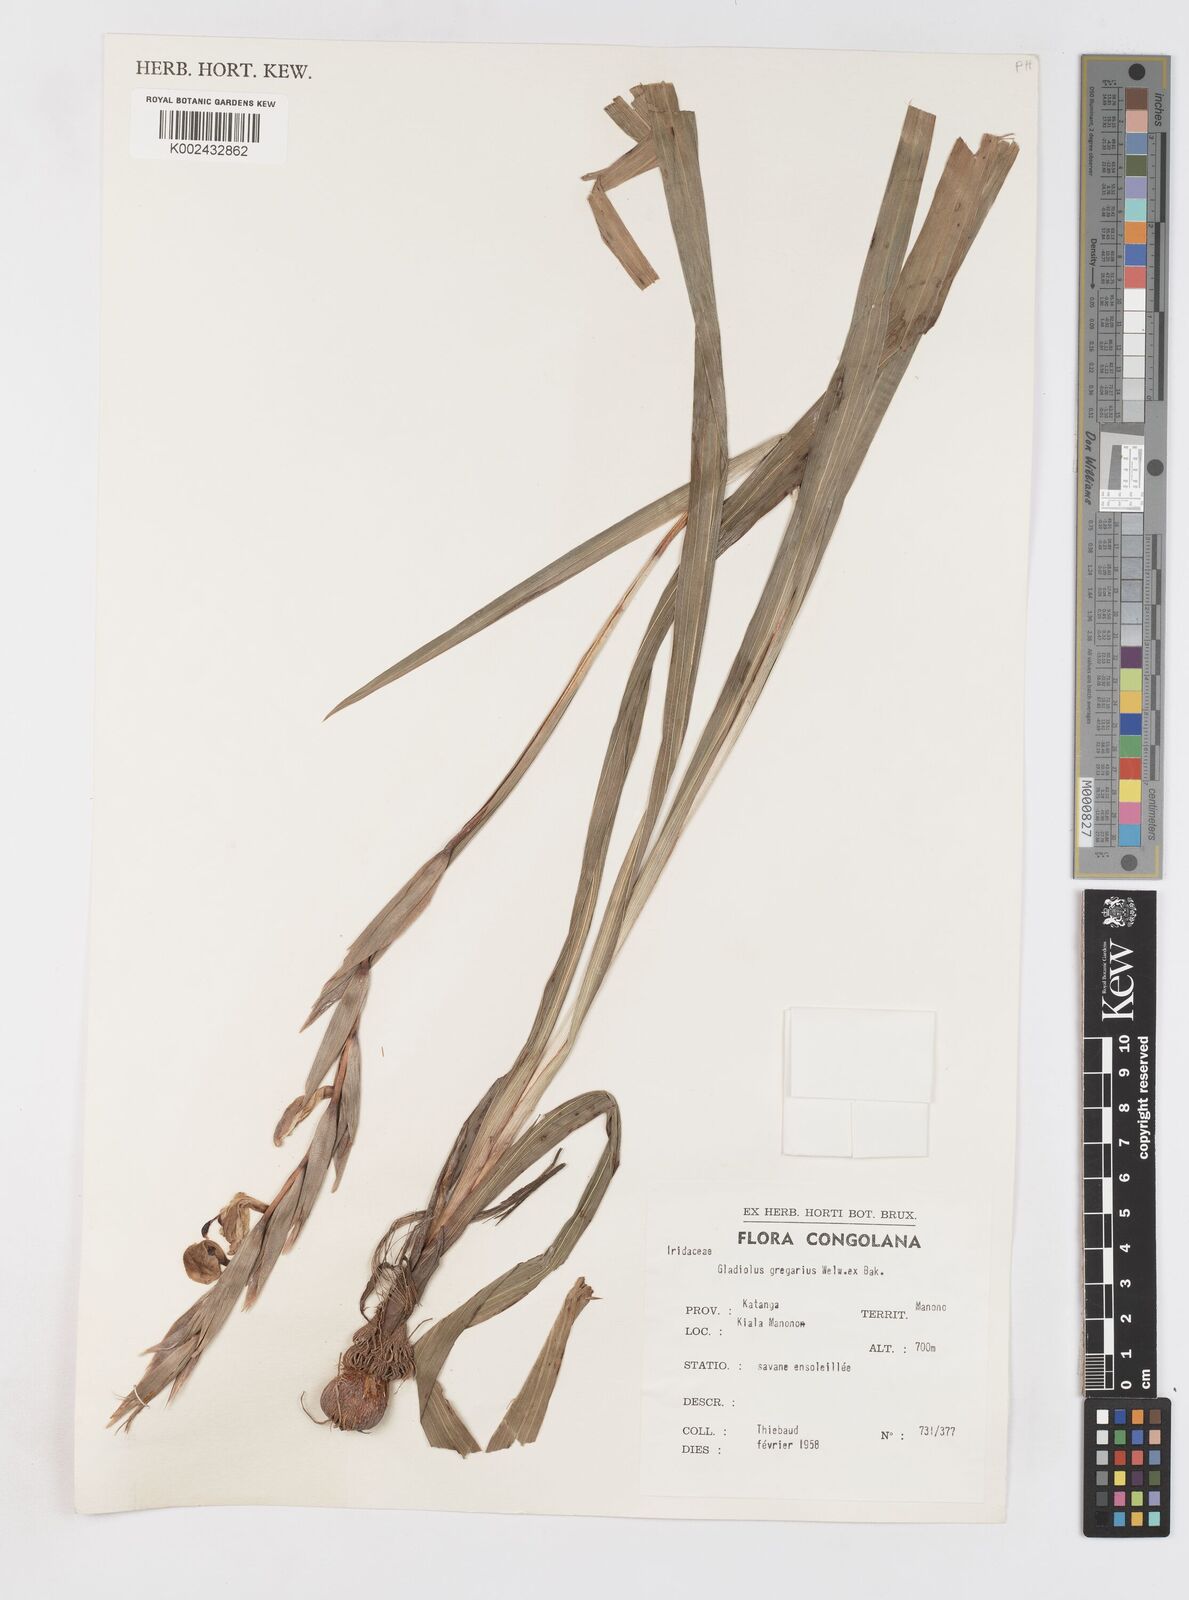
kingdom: Plantae
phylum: Tracheophyta
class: Liliopsida
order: Asparagales
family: Iridaceae
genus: Gladiolus
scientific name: Gladiolus gregarius
